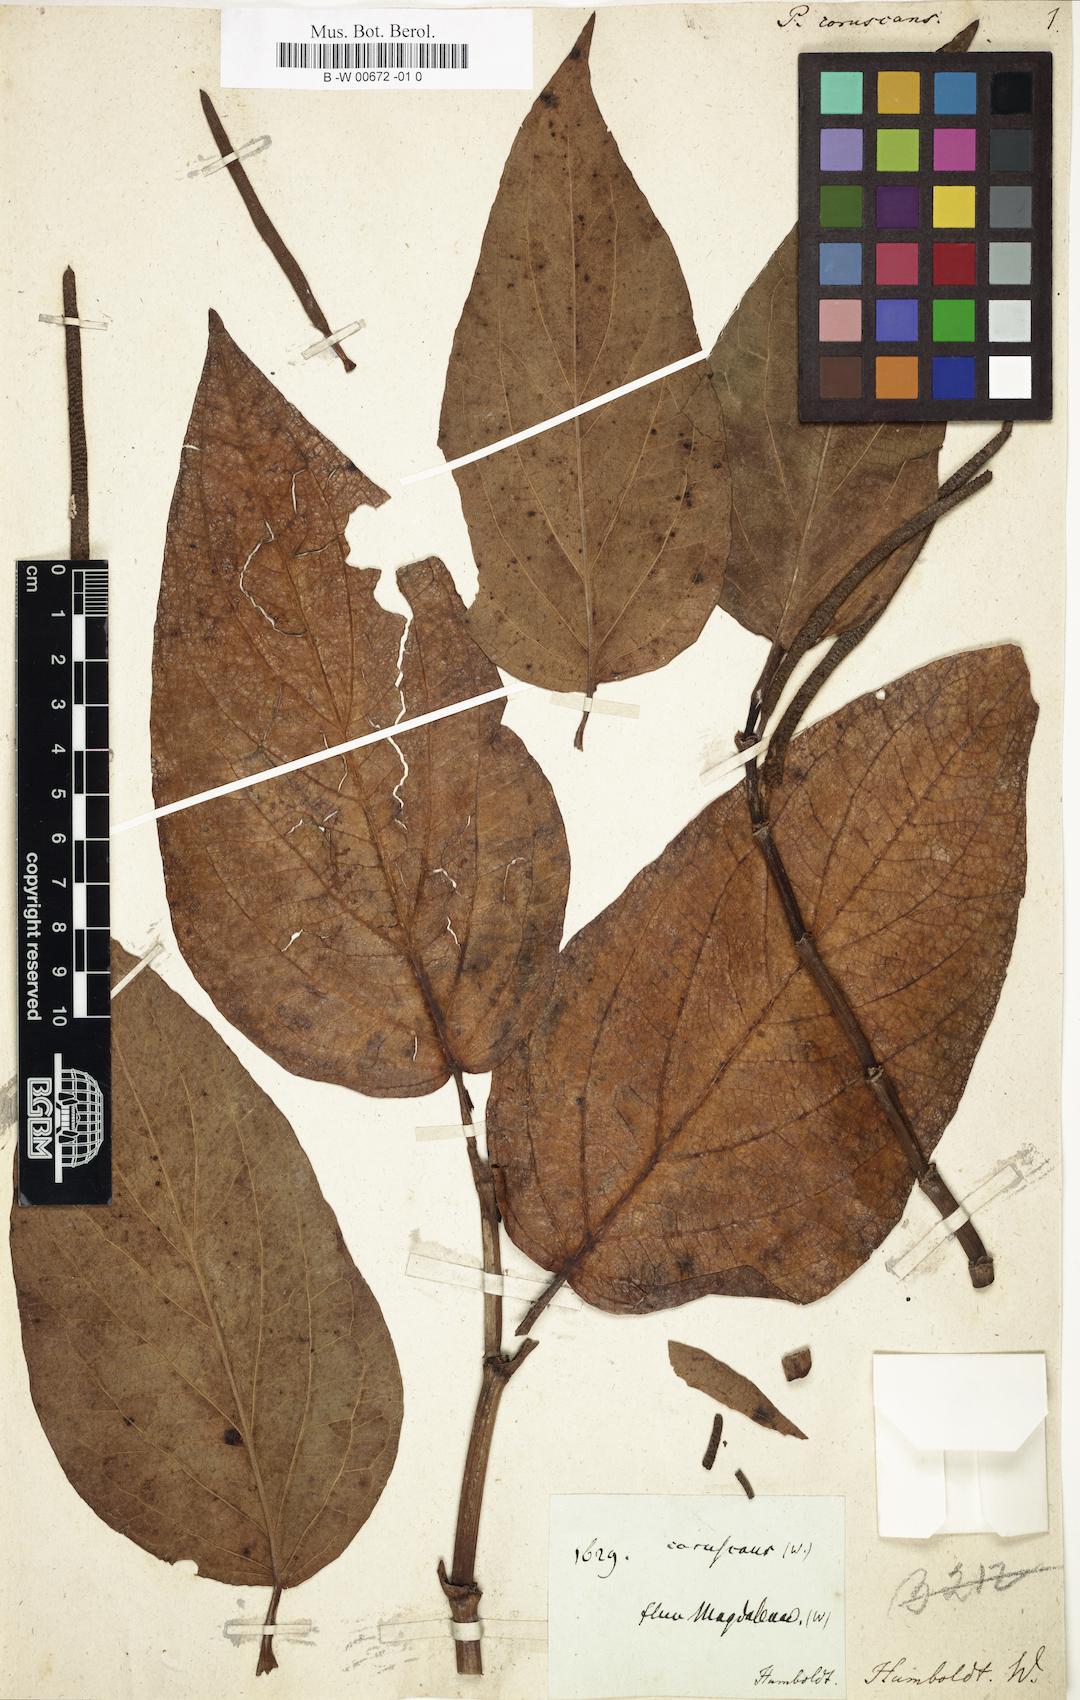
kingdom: Plantae
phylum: Tracheophyta
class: Magnoliopsida
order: Piperales
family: Piperaceae
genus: Piper
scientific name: Piper coruscans
